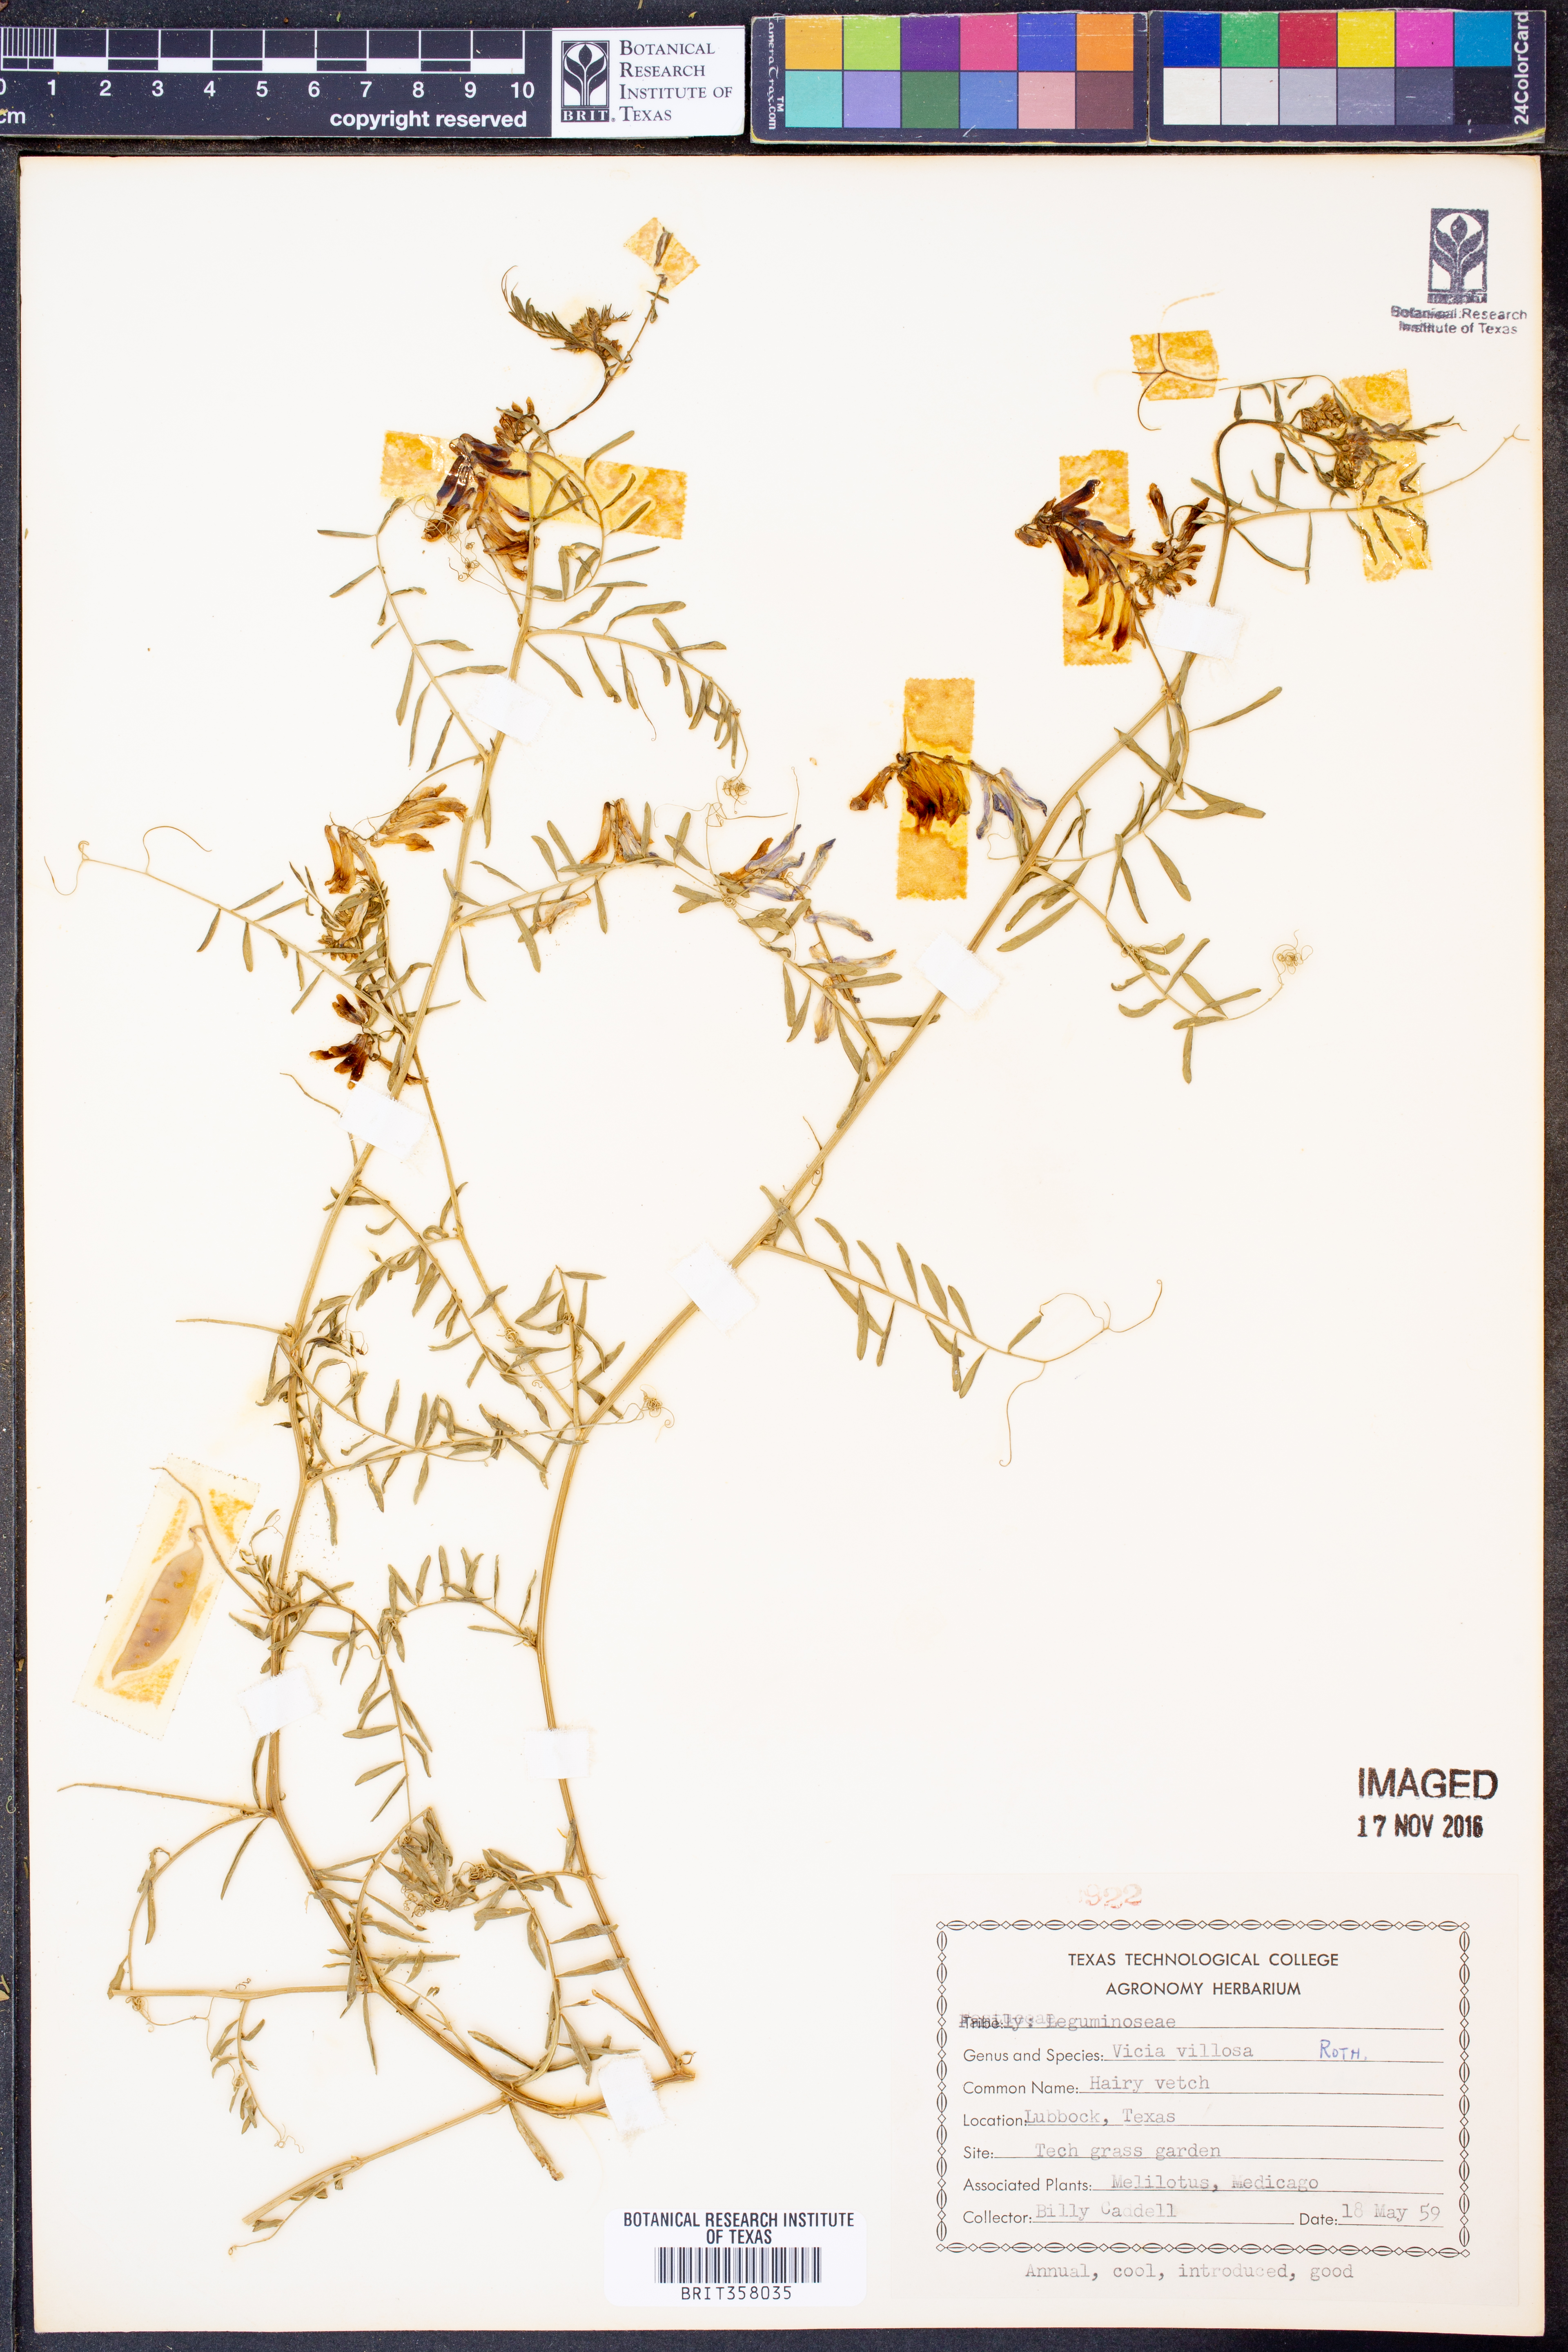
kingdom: Plantae
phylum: Tracheophyta
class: Magnoliopsida
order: Fabales
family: Fabaceae
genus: Vicia
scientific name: Vicia villosa
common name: Fodder vetch
